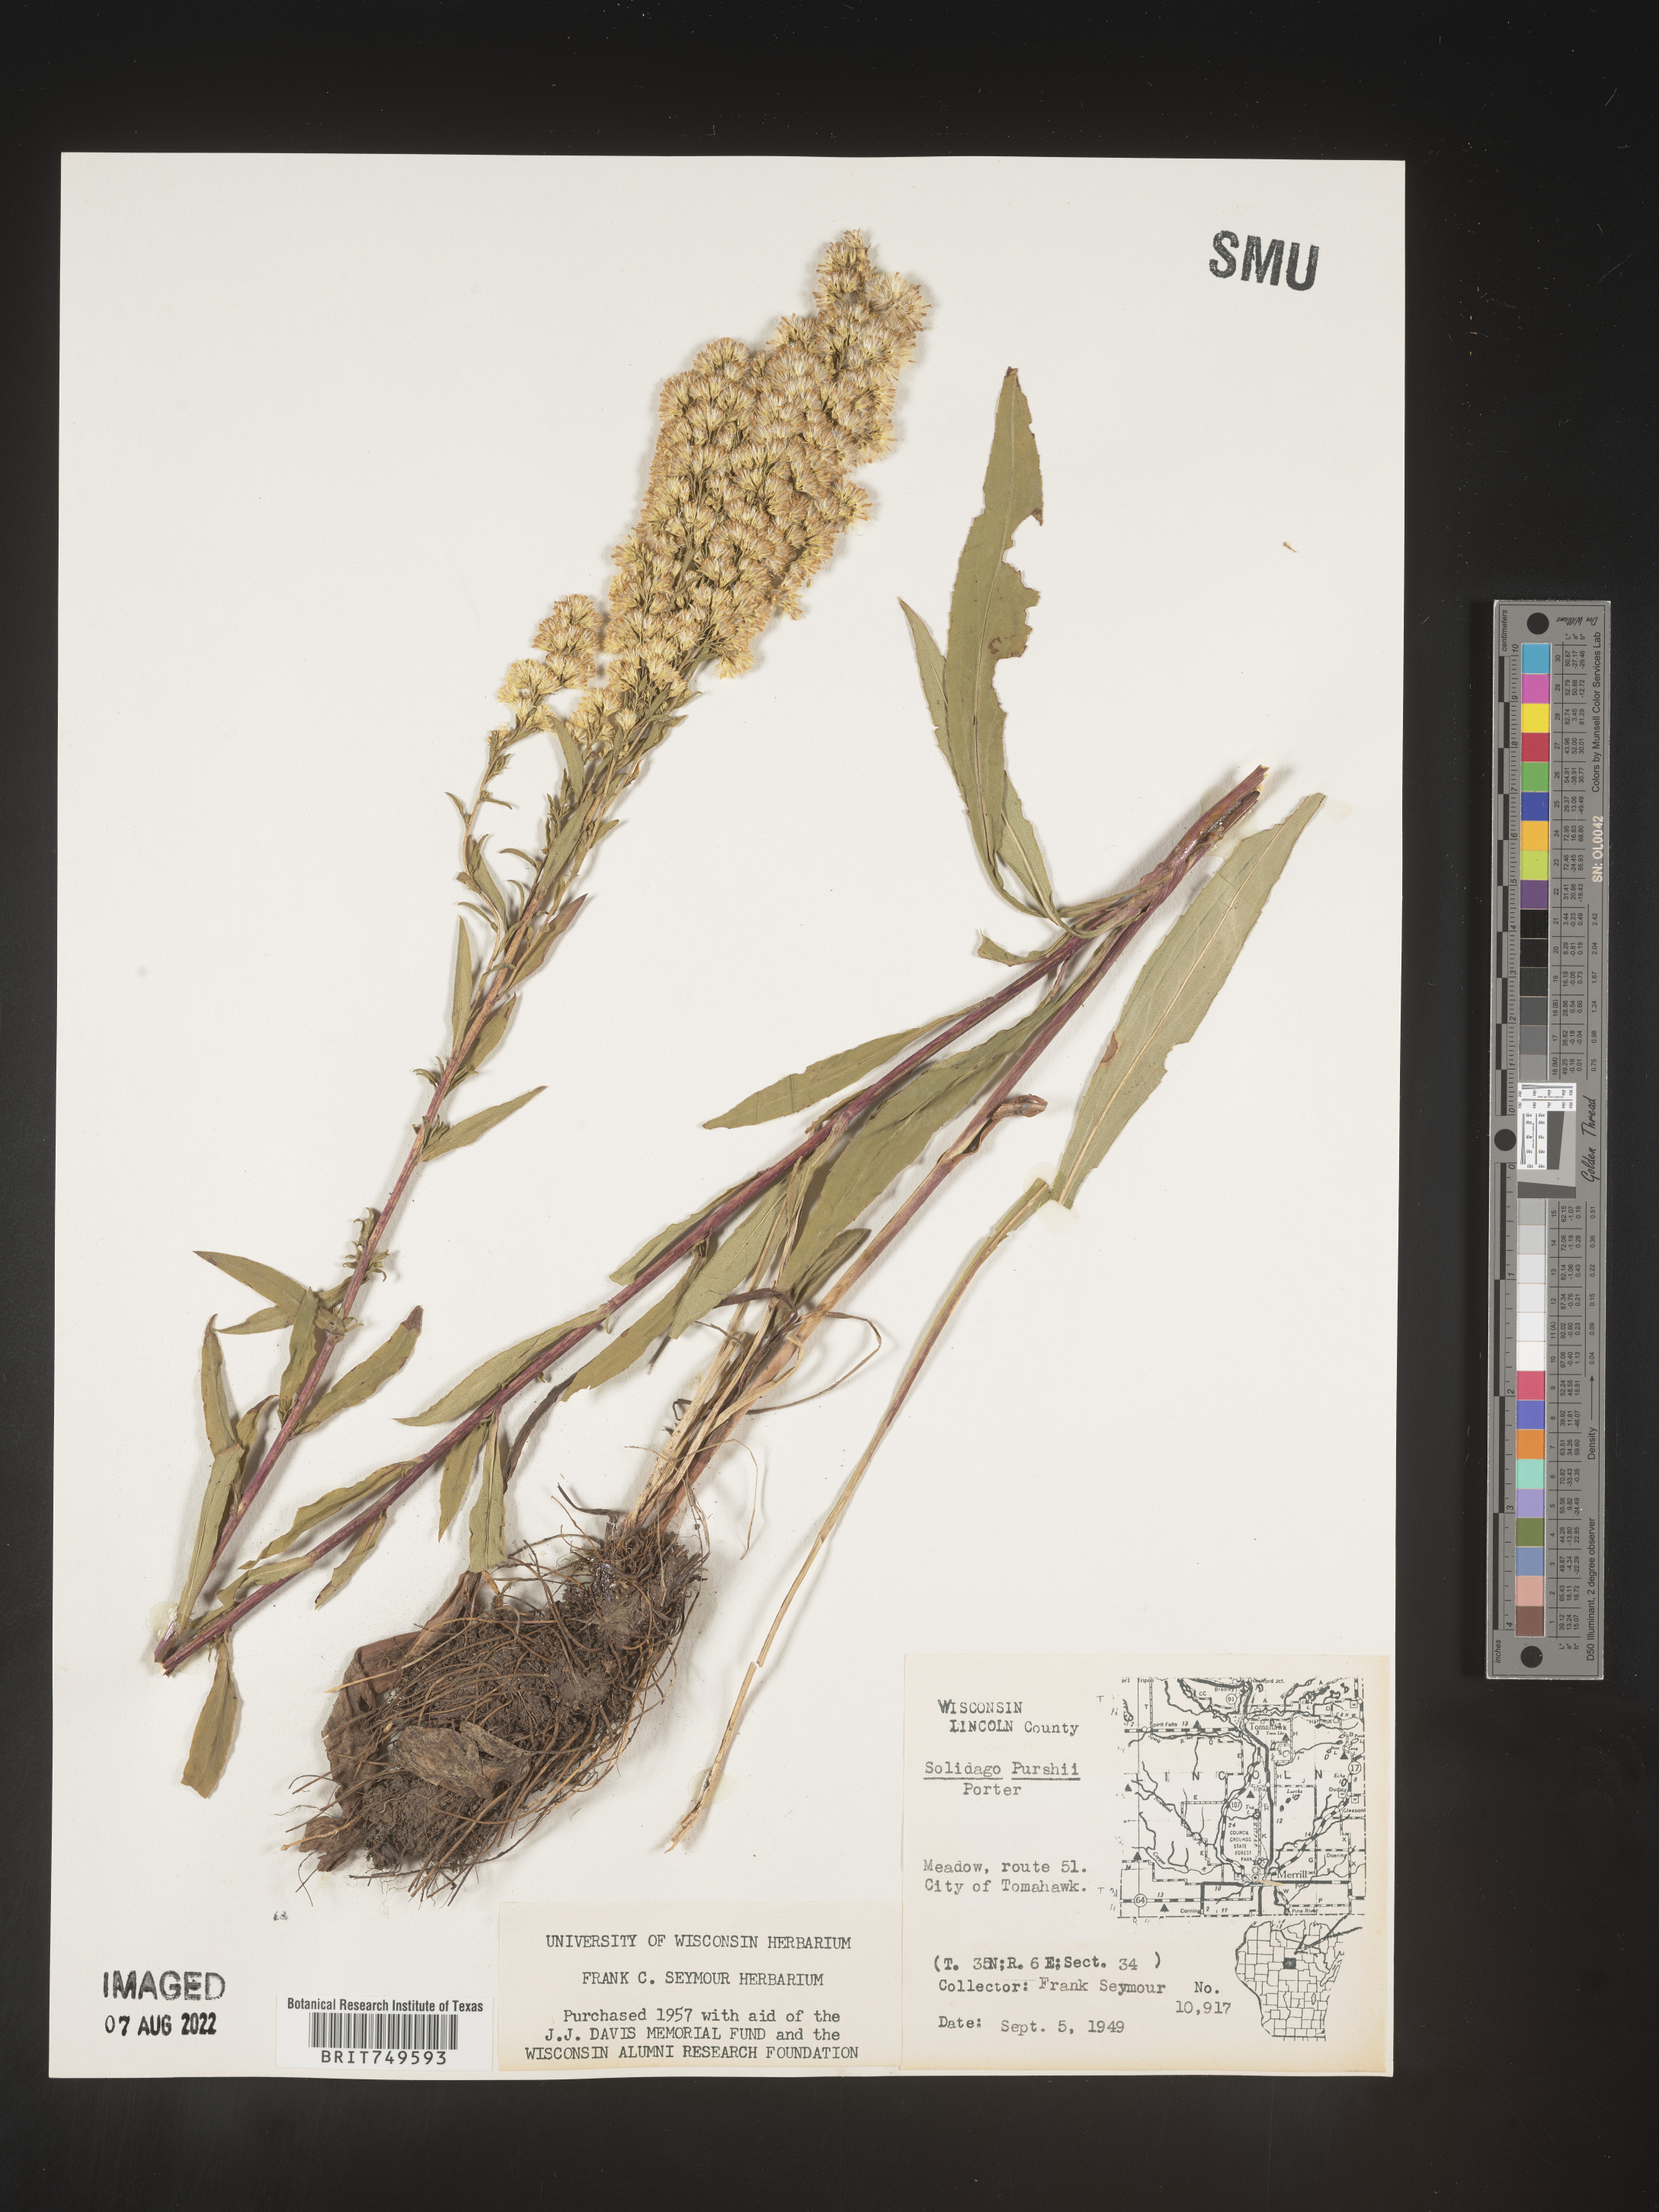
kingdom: Plantae
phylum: Tracheophyta
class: Magnoliopsida
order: Asterales
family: Asteraceae
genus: Solidago
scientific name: Solidago uliginosa
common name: Bog goldenrod
